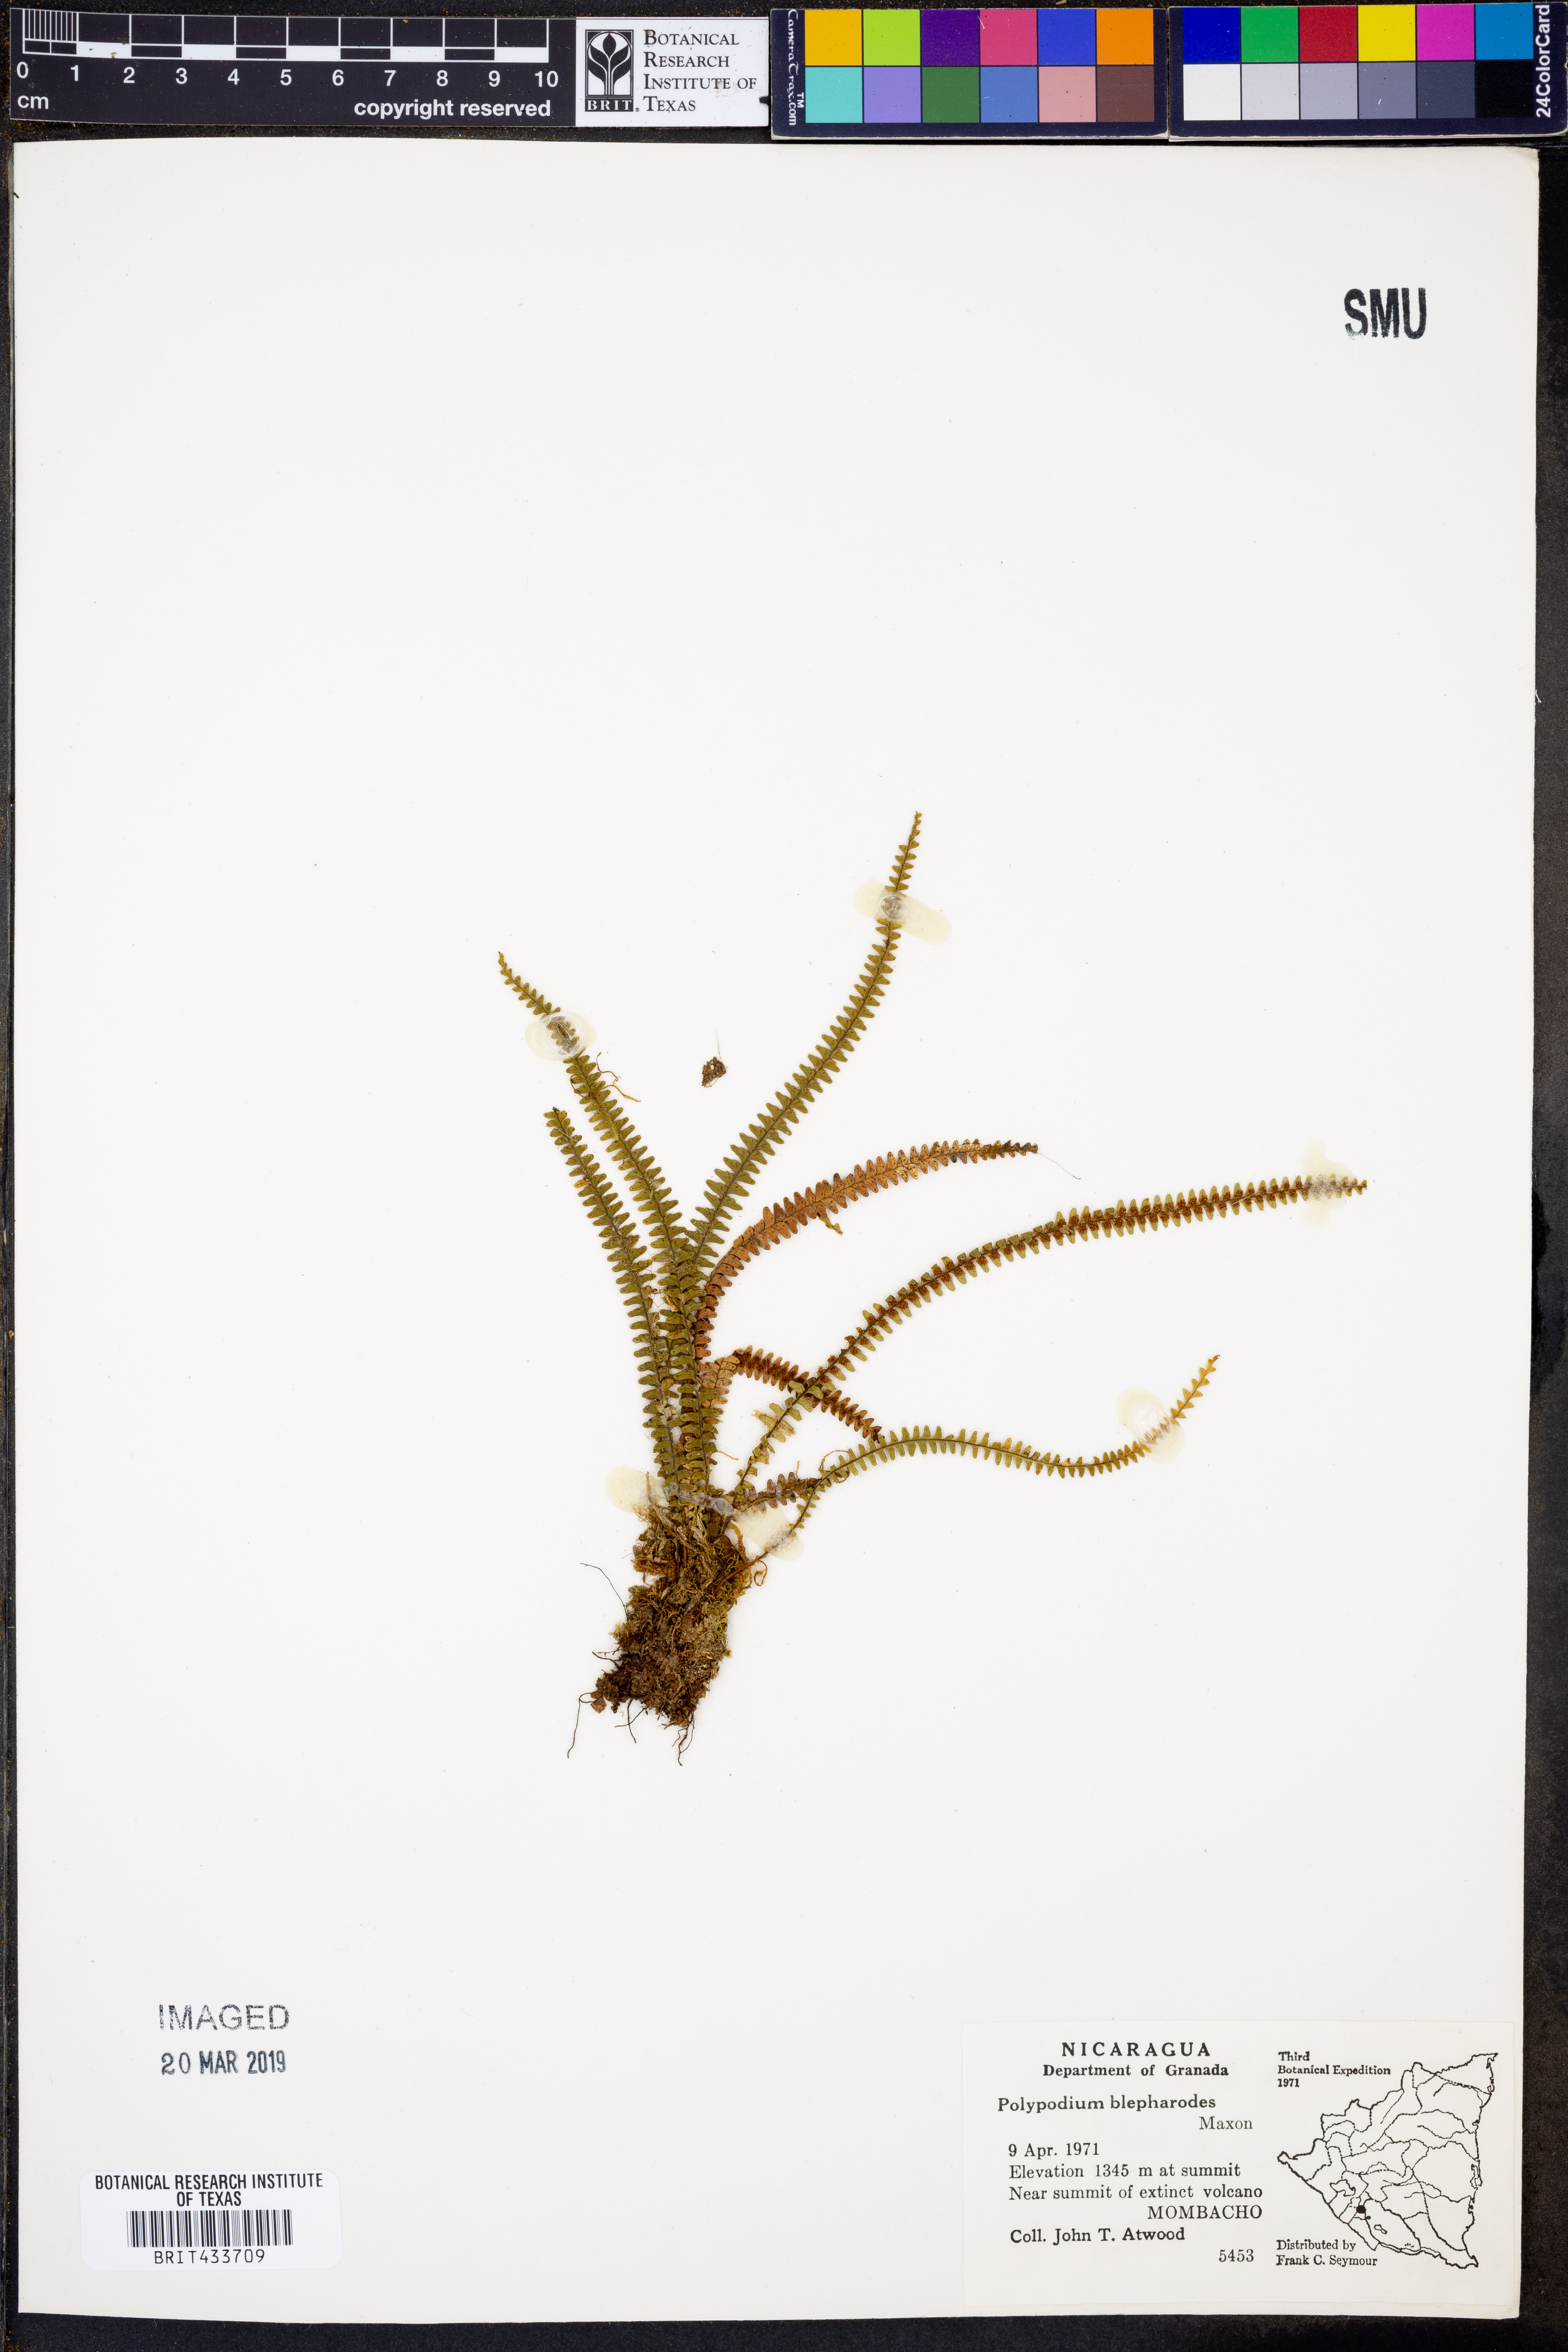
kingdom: Plantae
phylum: Tracheophyta
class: Polypodiopsida
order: Polypodiales
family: Polypodiaceae
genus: Moranopteris
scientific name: Moranopteris taenifolia
